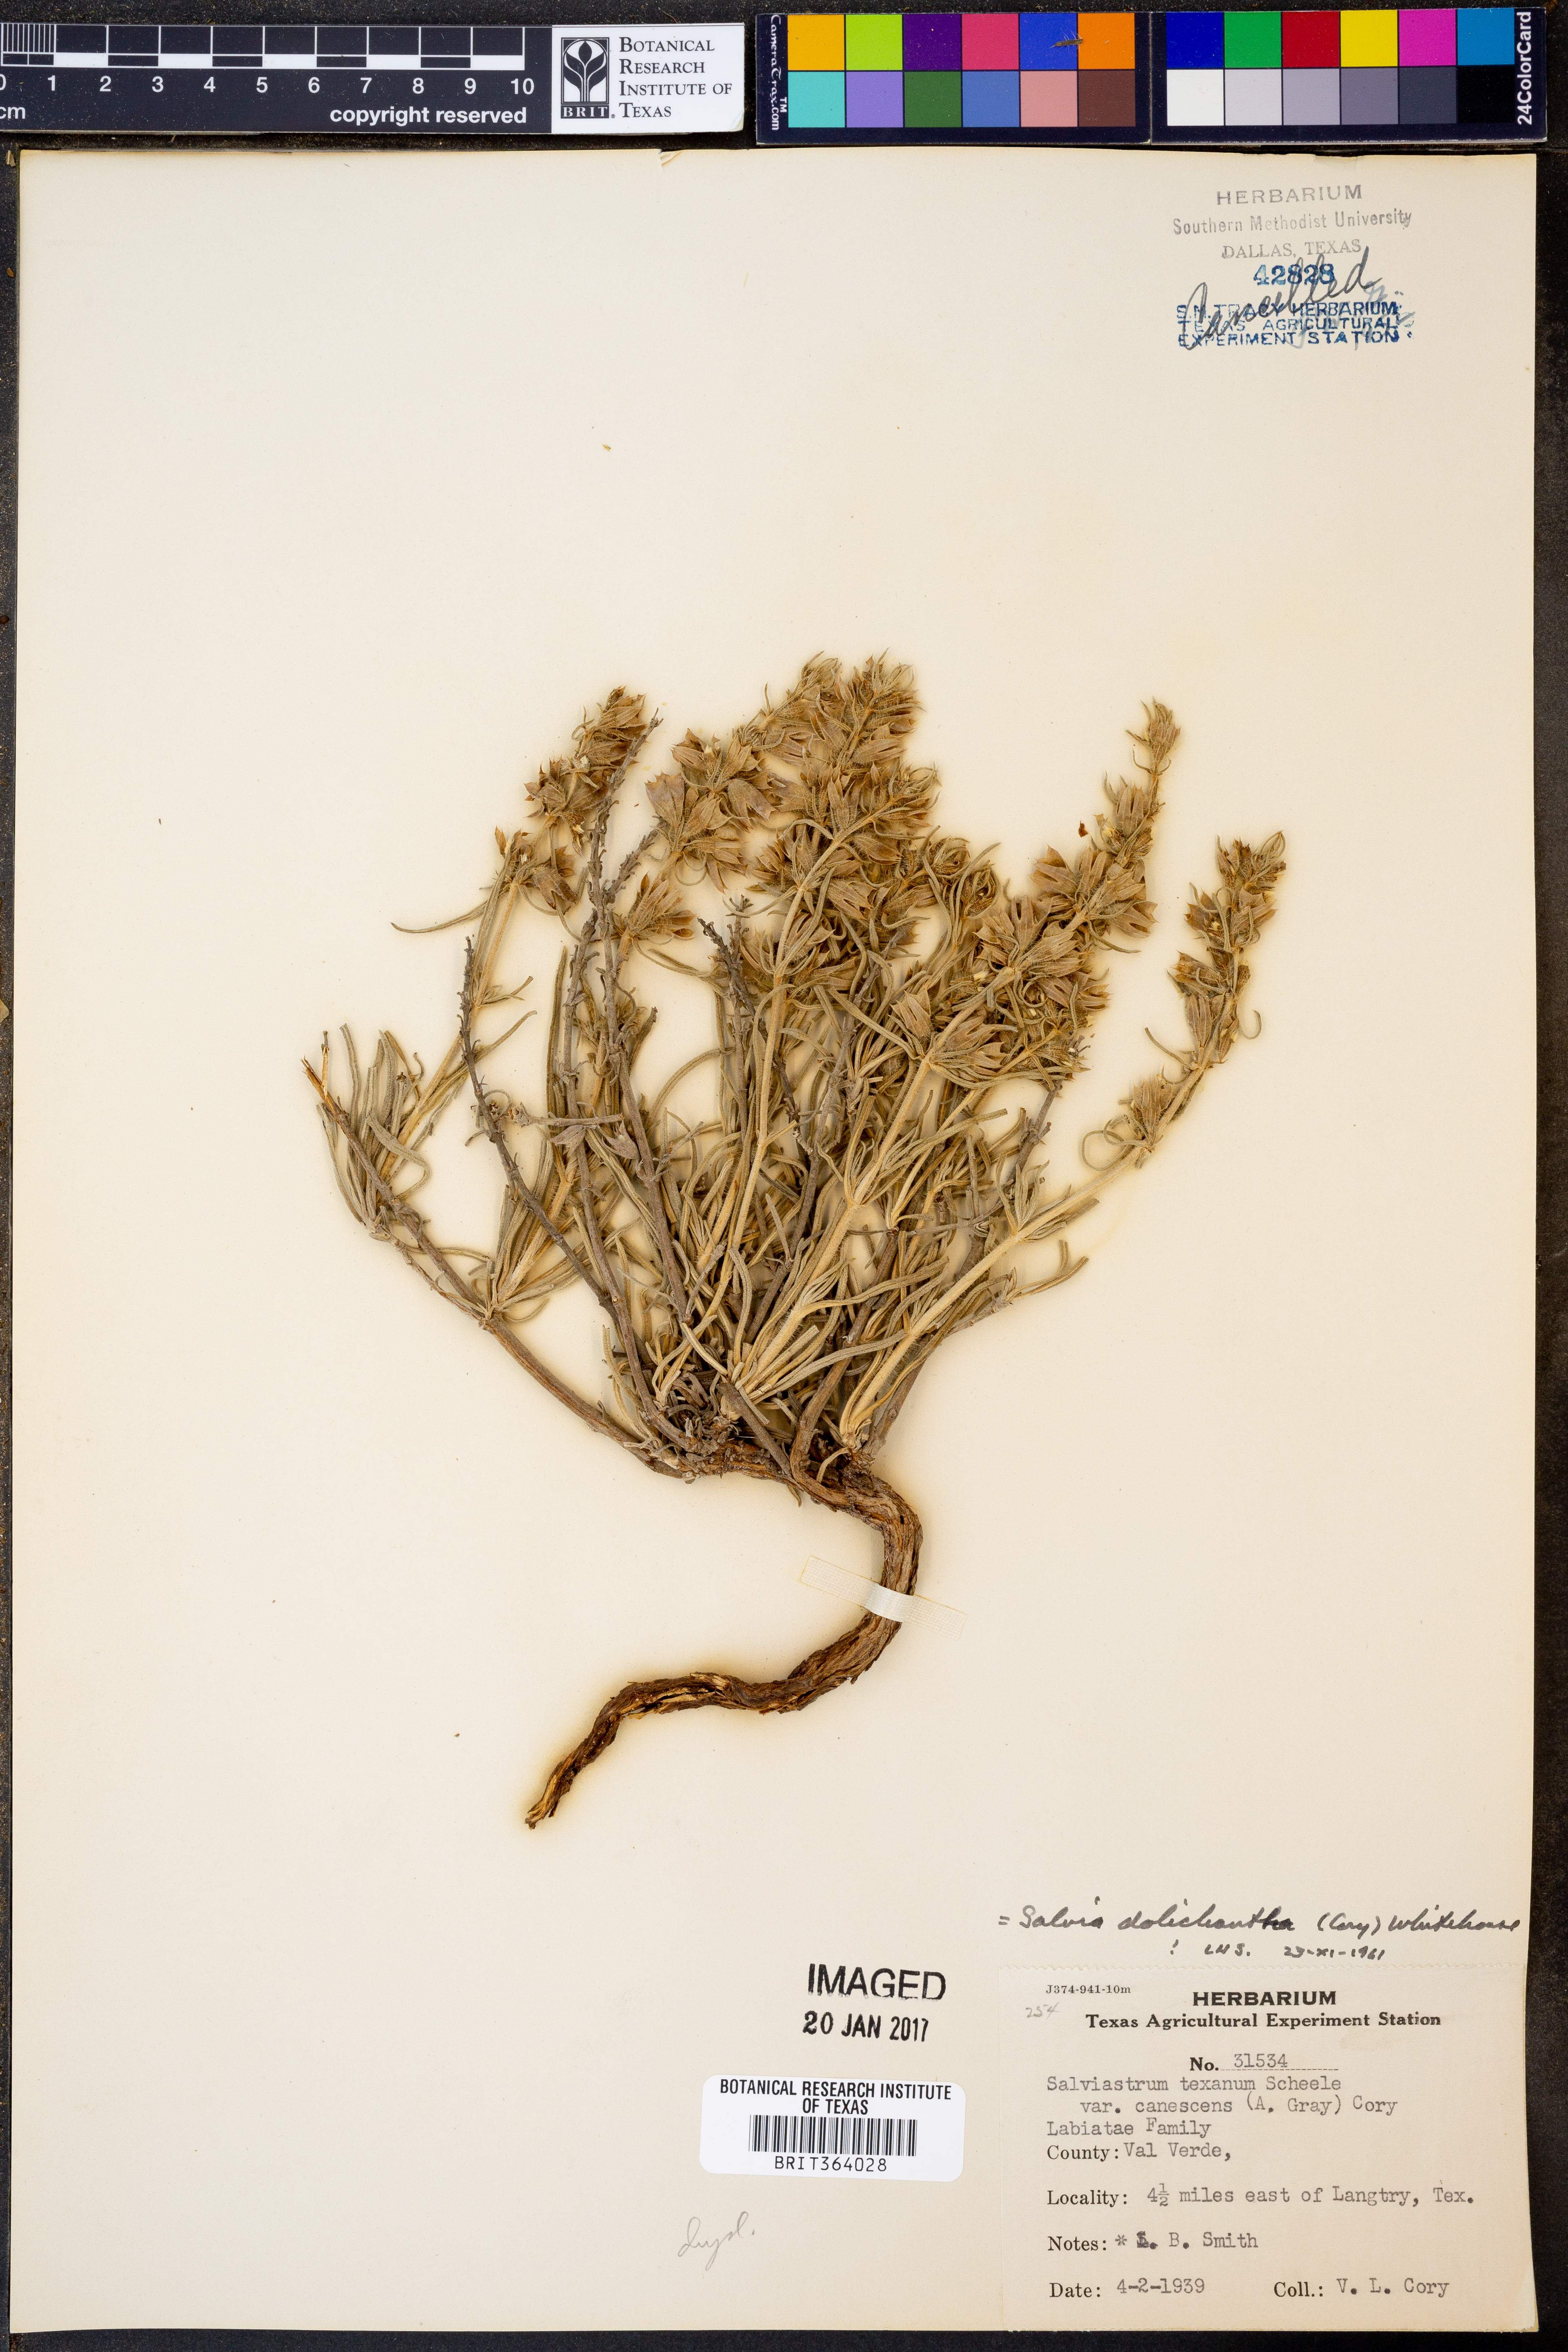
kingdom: Plantae
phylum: Tracheophyta
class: Magnoliopsida
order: Lamiales
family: Lamiaceae
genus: Salvia
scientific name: Salvia whitehousei
